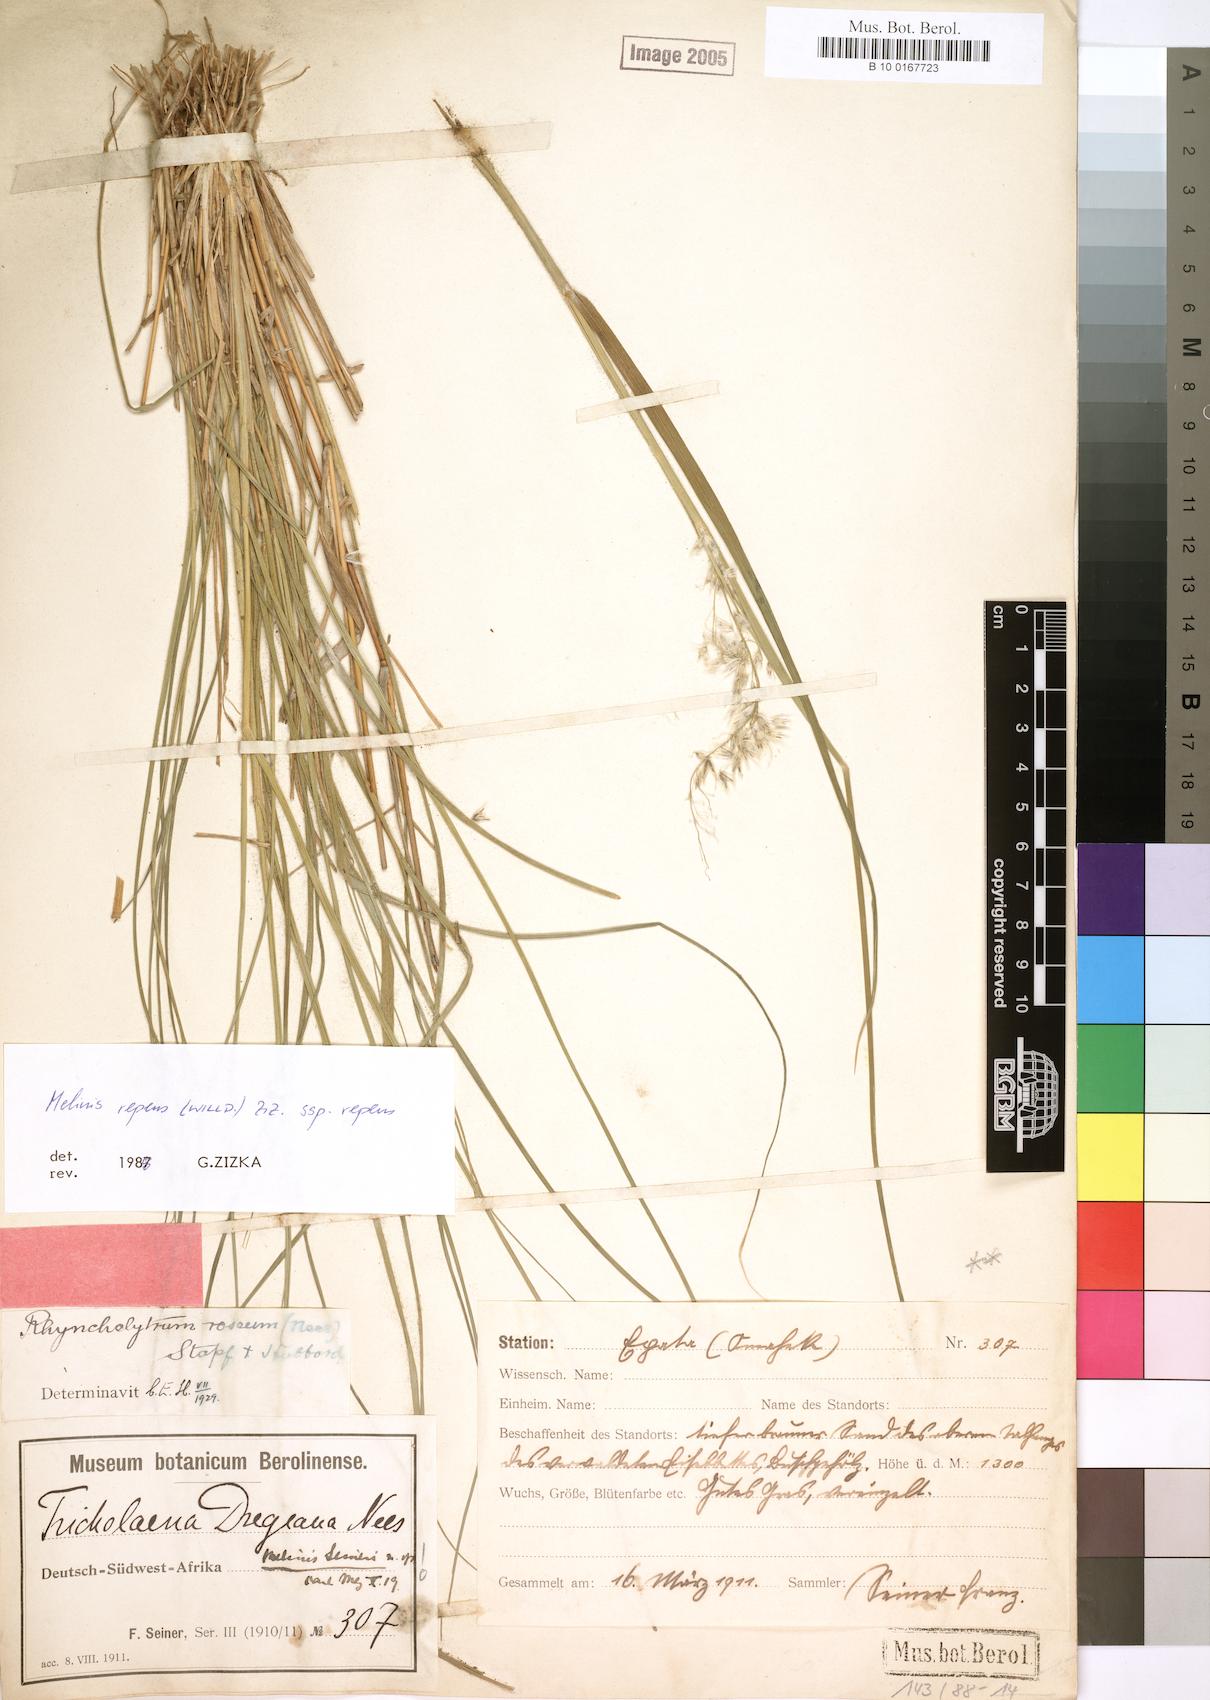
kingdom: Plantae
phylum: Tracheophyta
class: Liliopsida
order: Poales
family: Poaceae
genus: Melinis
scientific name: Melinis repens
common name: Rose natal grass
